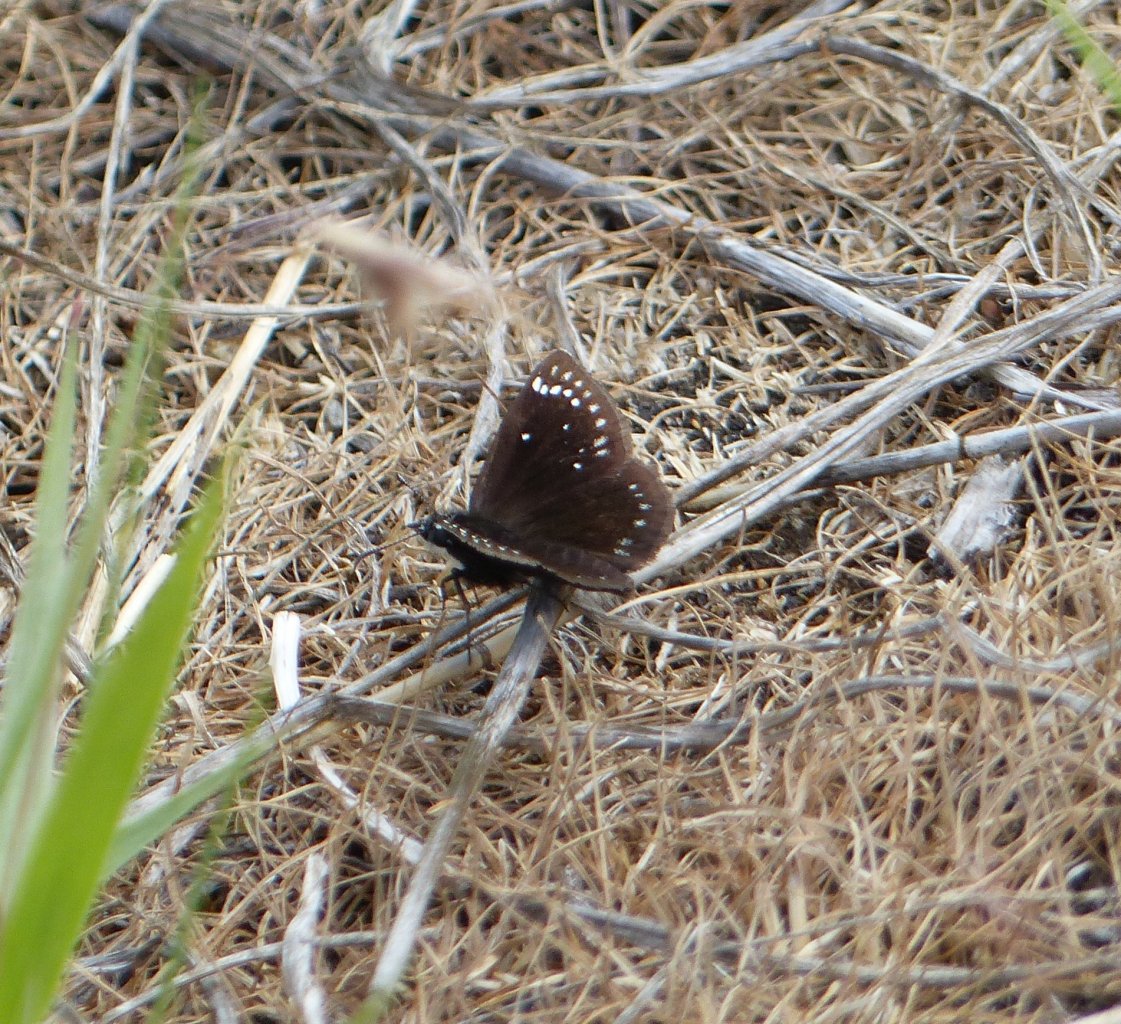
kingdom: Animalia
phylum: Arthropoda
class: Insecta
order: Lepidoptera
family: Hesperiidae
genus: Pholisora
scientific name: Pholisora catullus
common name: Common Sootywing
